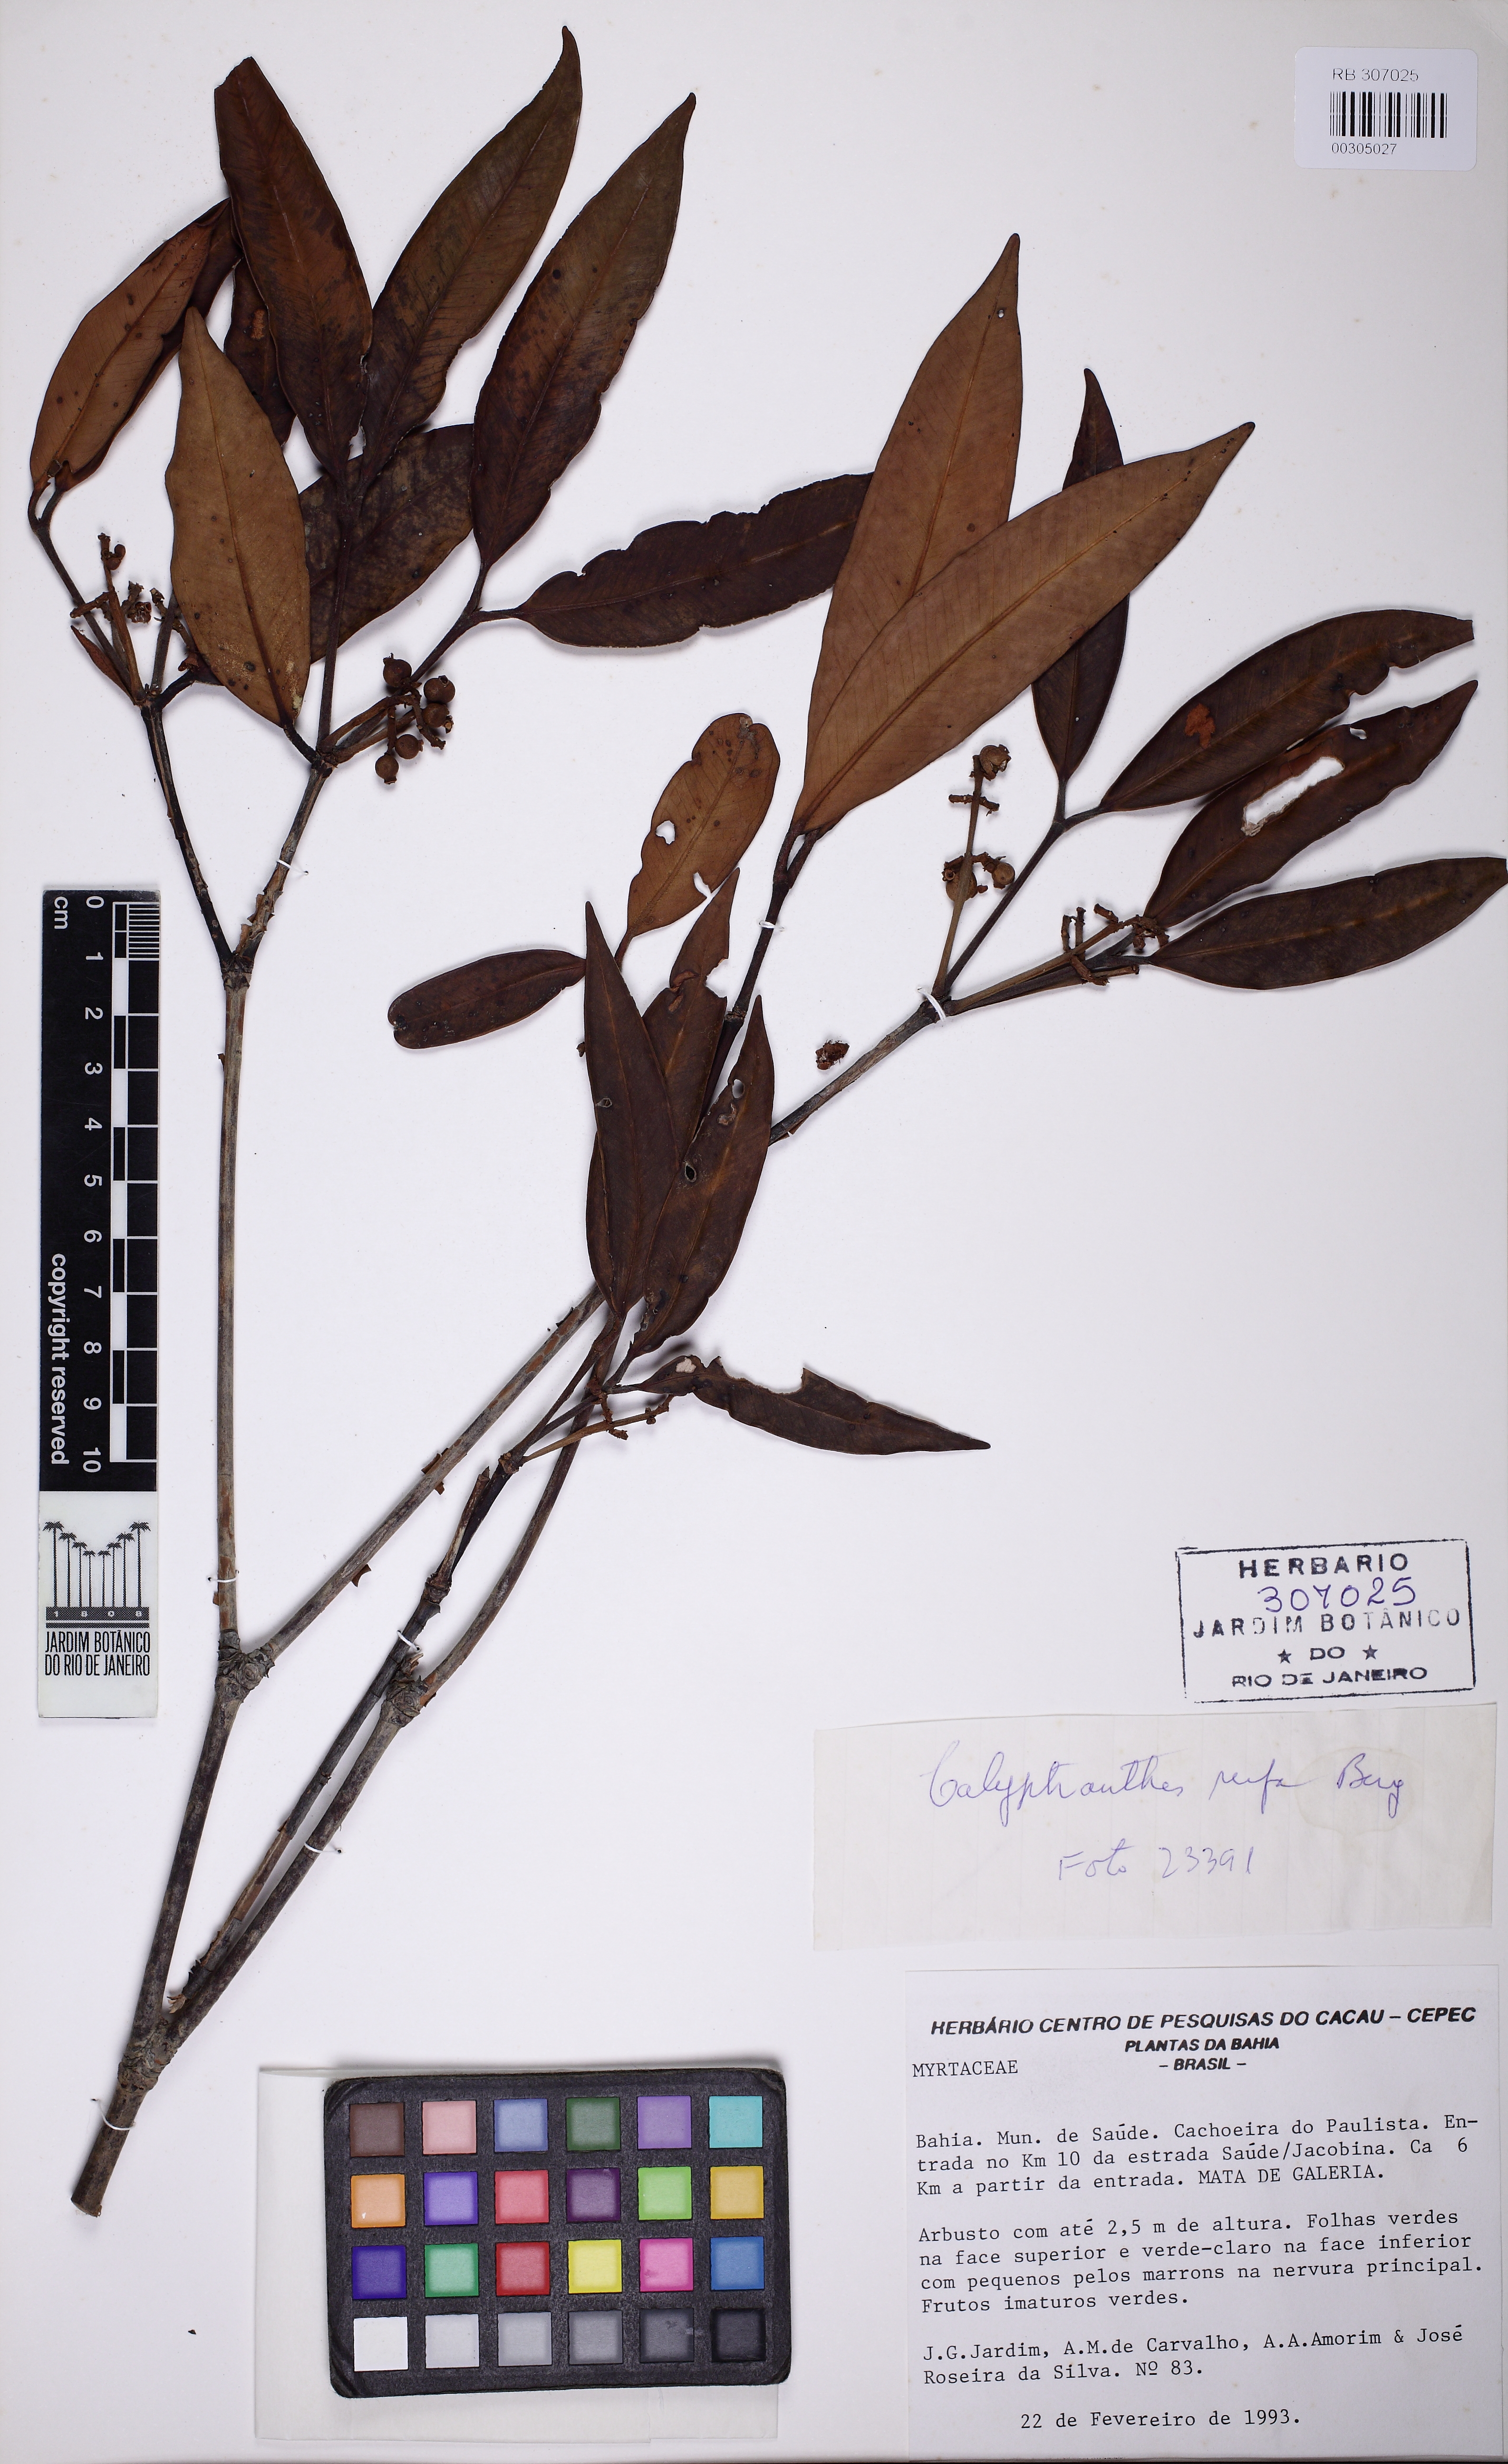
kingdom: Plantae
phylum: Tracheophyta
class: Magnoliopsida
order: Myrtales
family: Myrtaceae
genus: Calyptranthes
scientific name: Calyptranthes rufa
